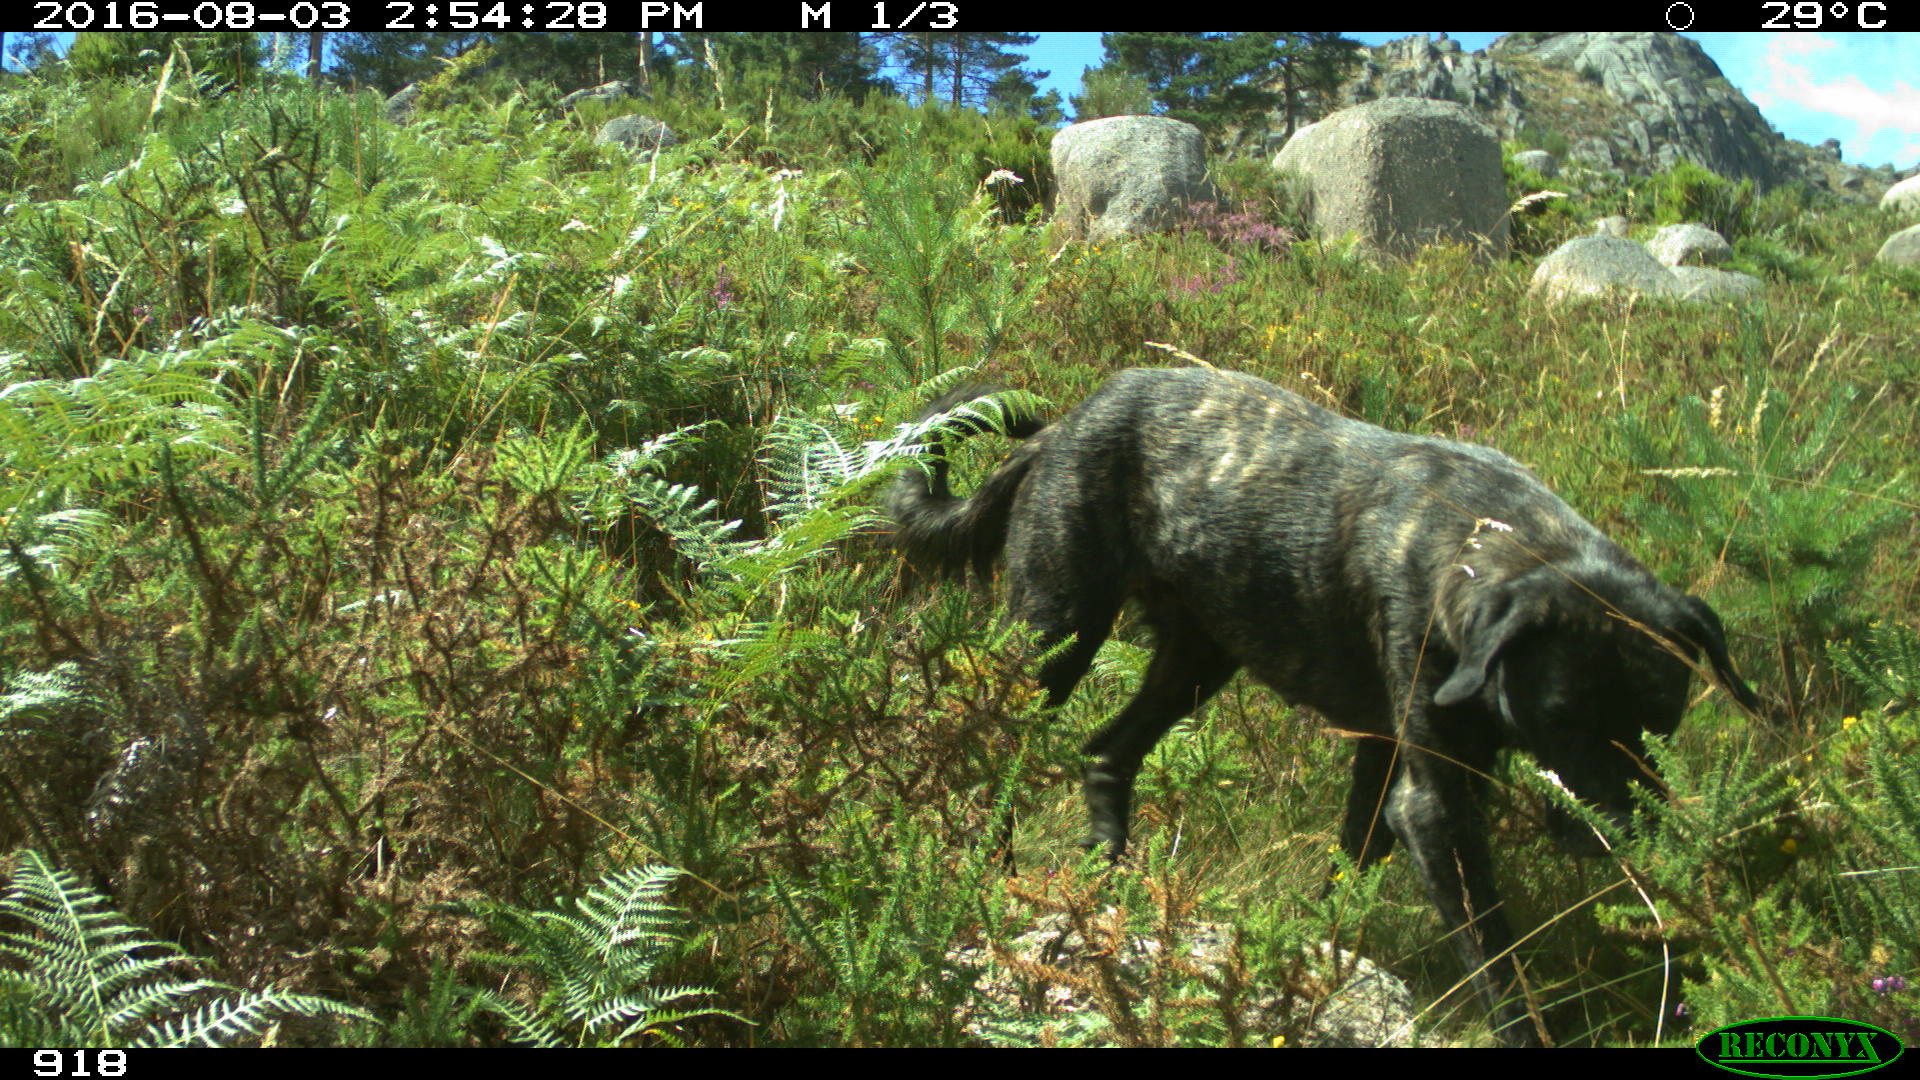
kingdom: Animalia
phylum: Chordata
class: Mammalia
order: Carnivora
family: Canidae
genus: Canis
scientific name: Canis lupus
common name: Gray wolf
